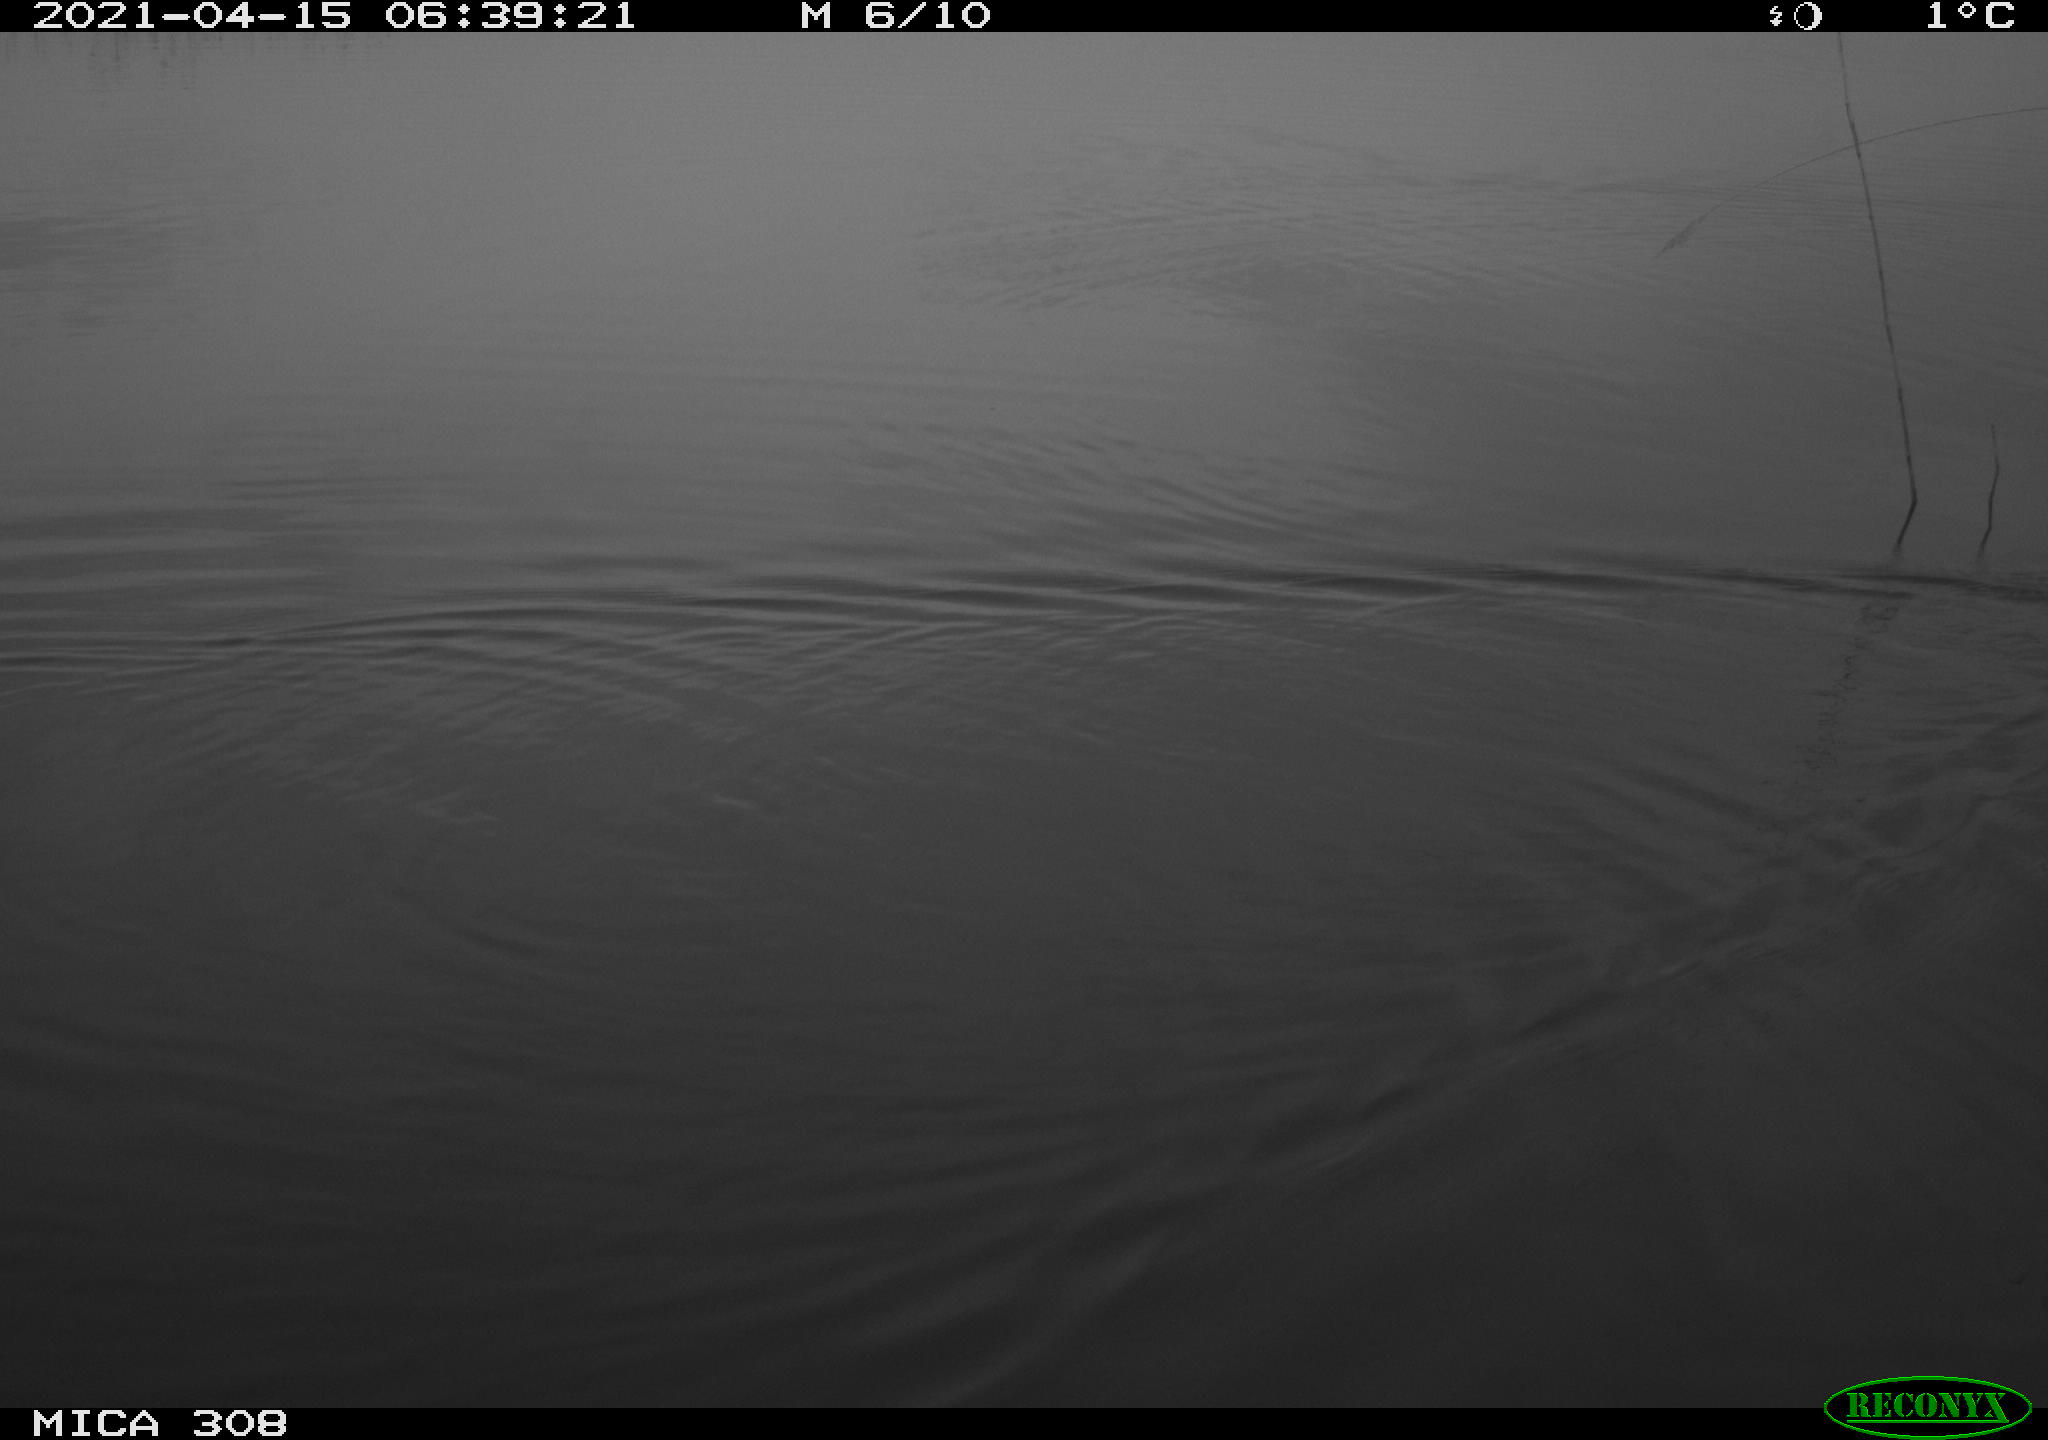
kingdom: Animalia
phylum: Chordata
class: Aves
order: Anseriformes
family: Anatidae
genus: Anas
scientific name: Anas platyrhynchos
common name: Mallard
